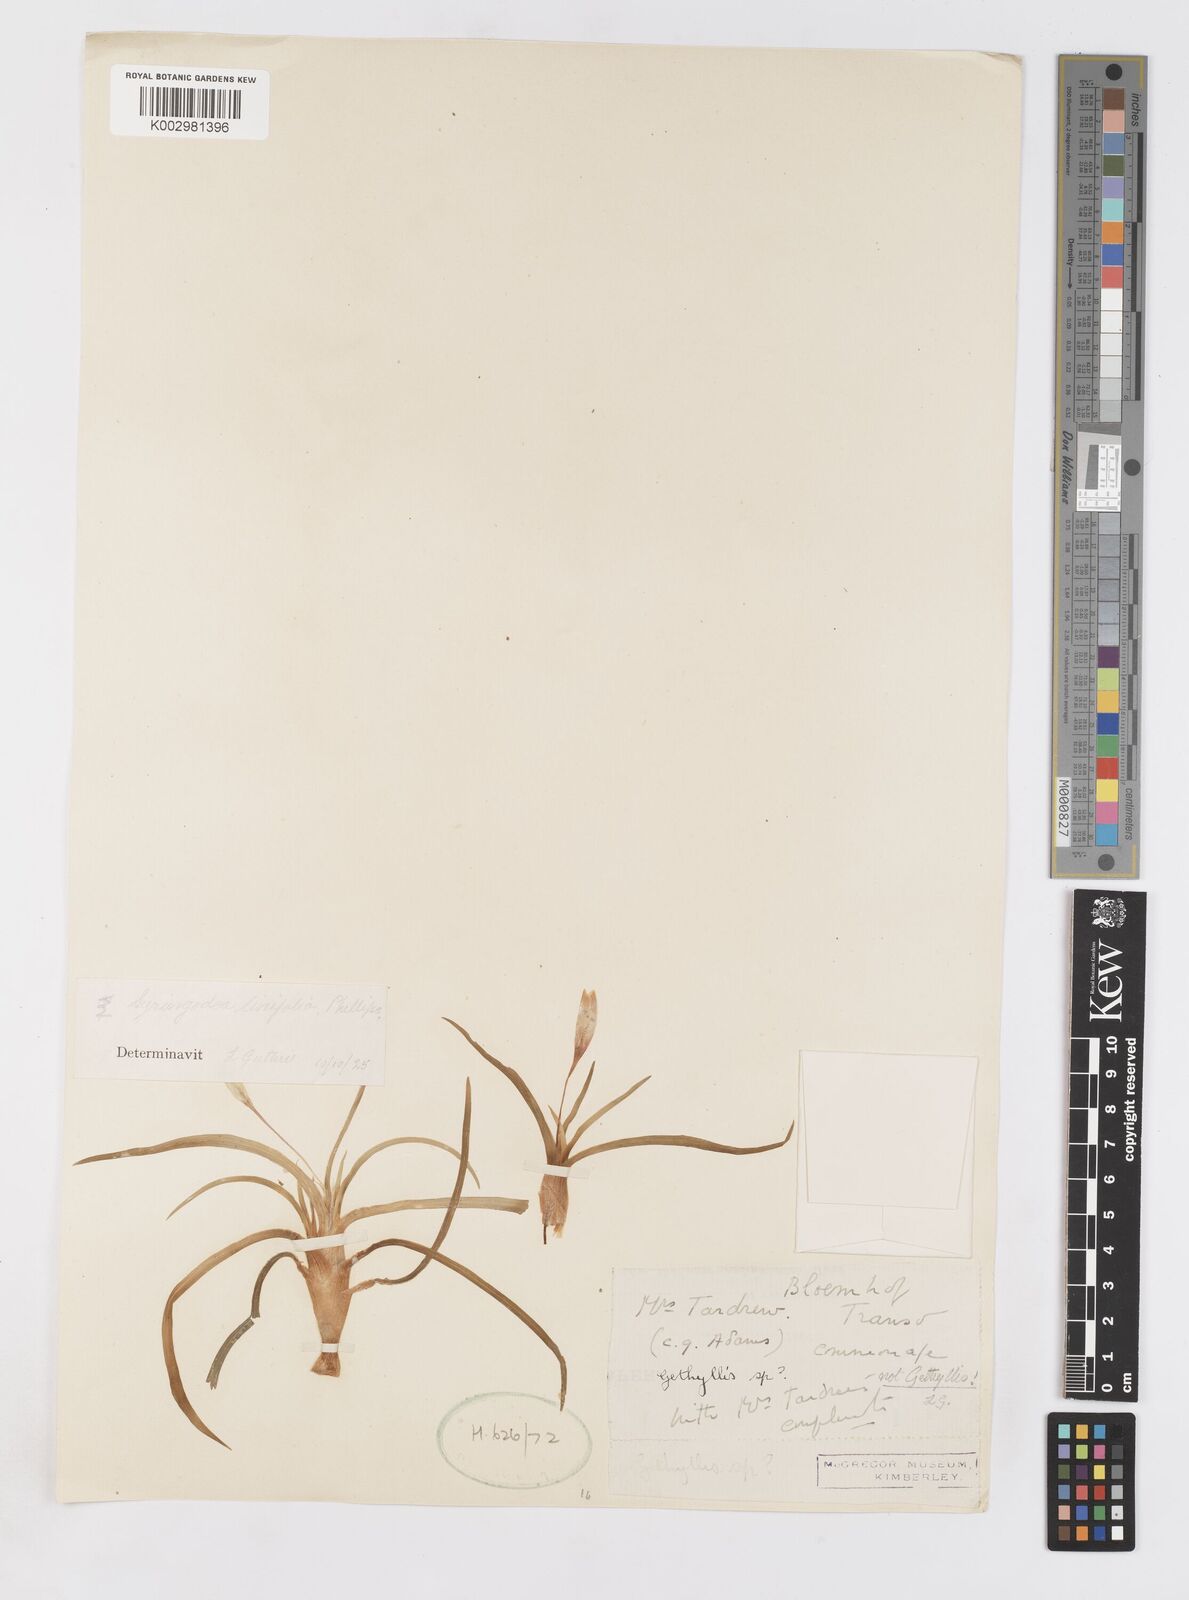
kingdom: Plantae
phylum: Tracheophyta
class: Liliopsida
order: Asparagales
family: Iridaceae
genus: Duthiastrum
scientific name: Duthiastrum linifolium
